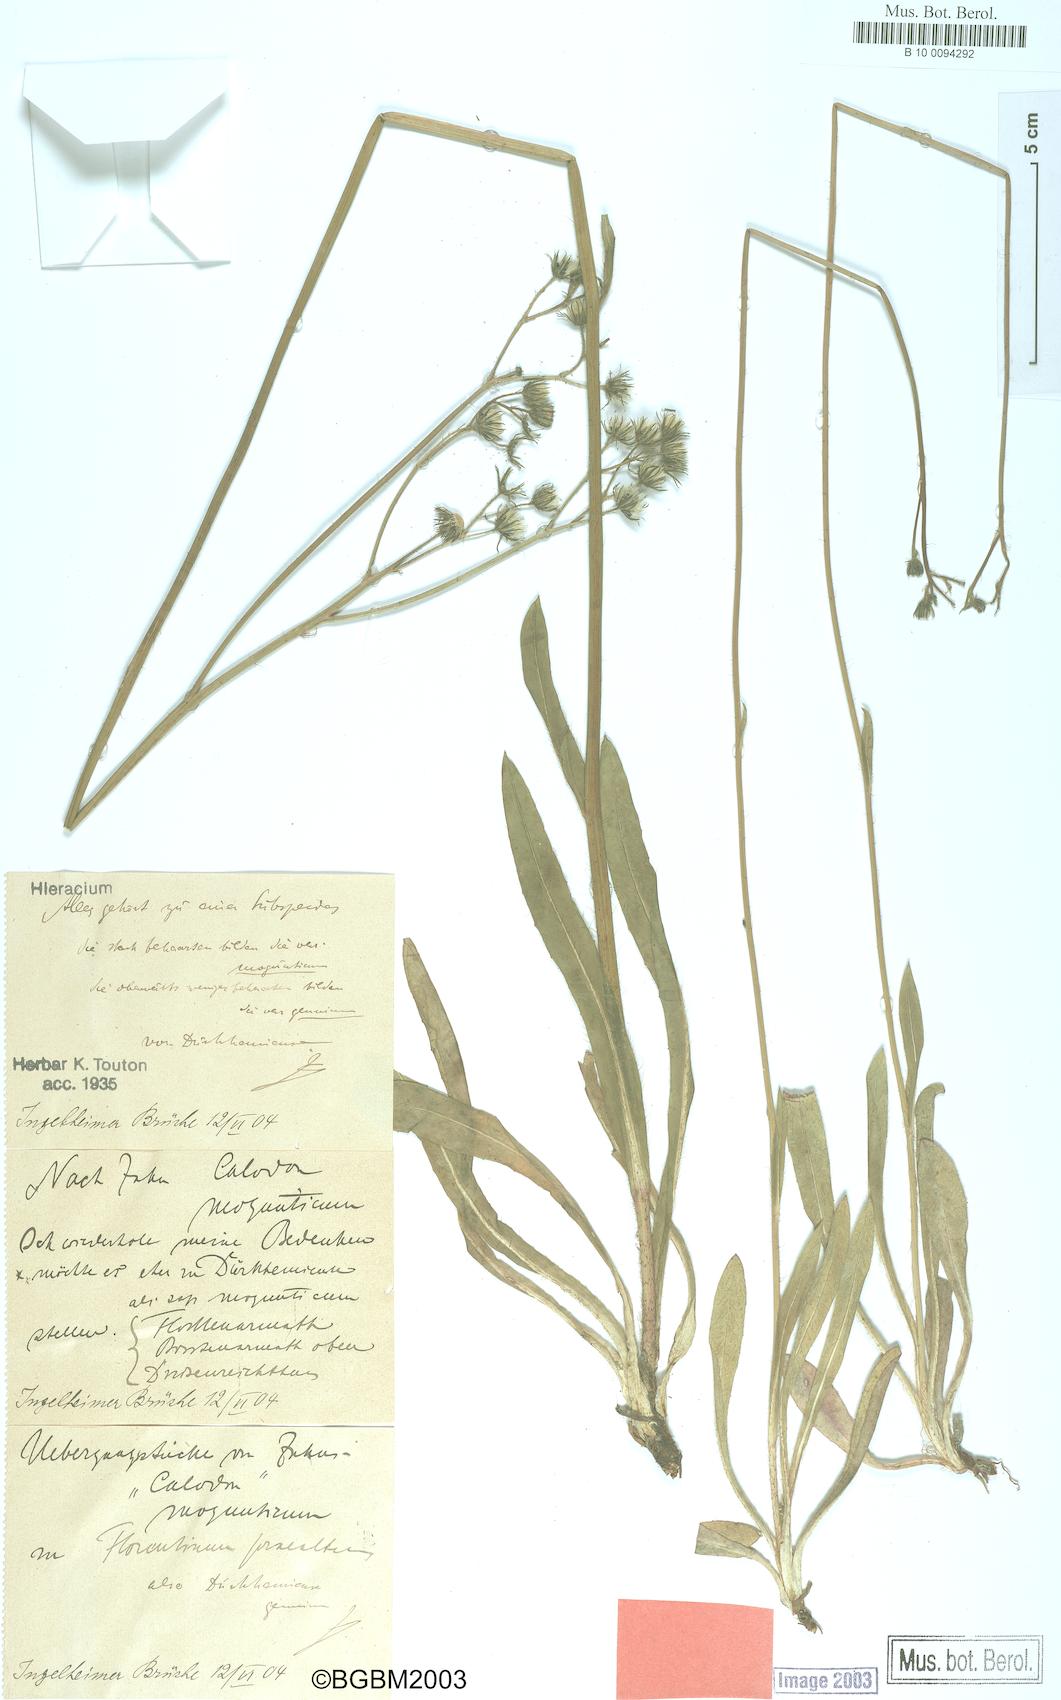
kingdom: Plantae
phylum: Tracheophyta
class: Magnoliopsida
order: Asterales
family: Asteraceae
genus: Pilosella
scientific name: Pilosella duerkhemiensis
